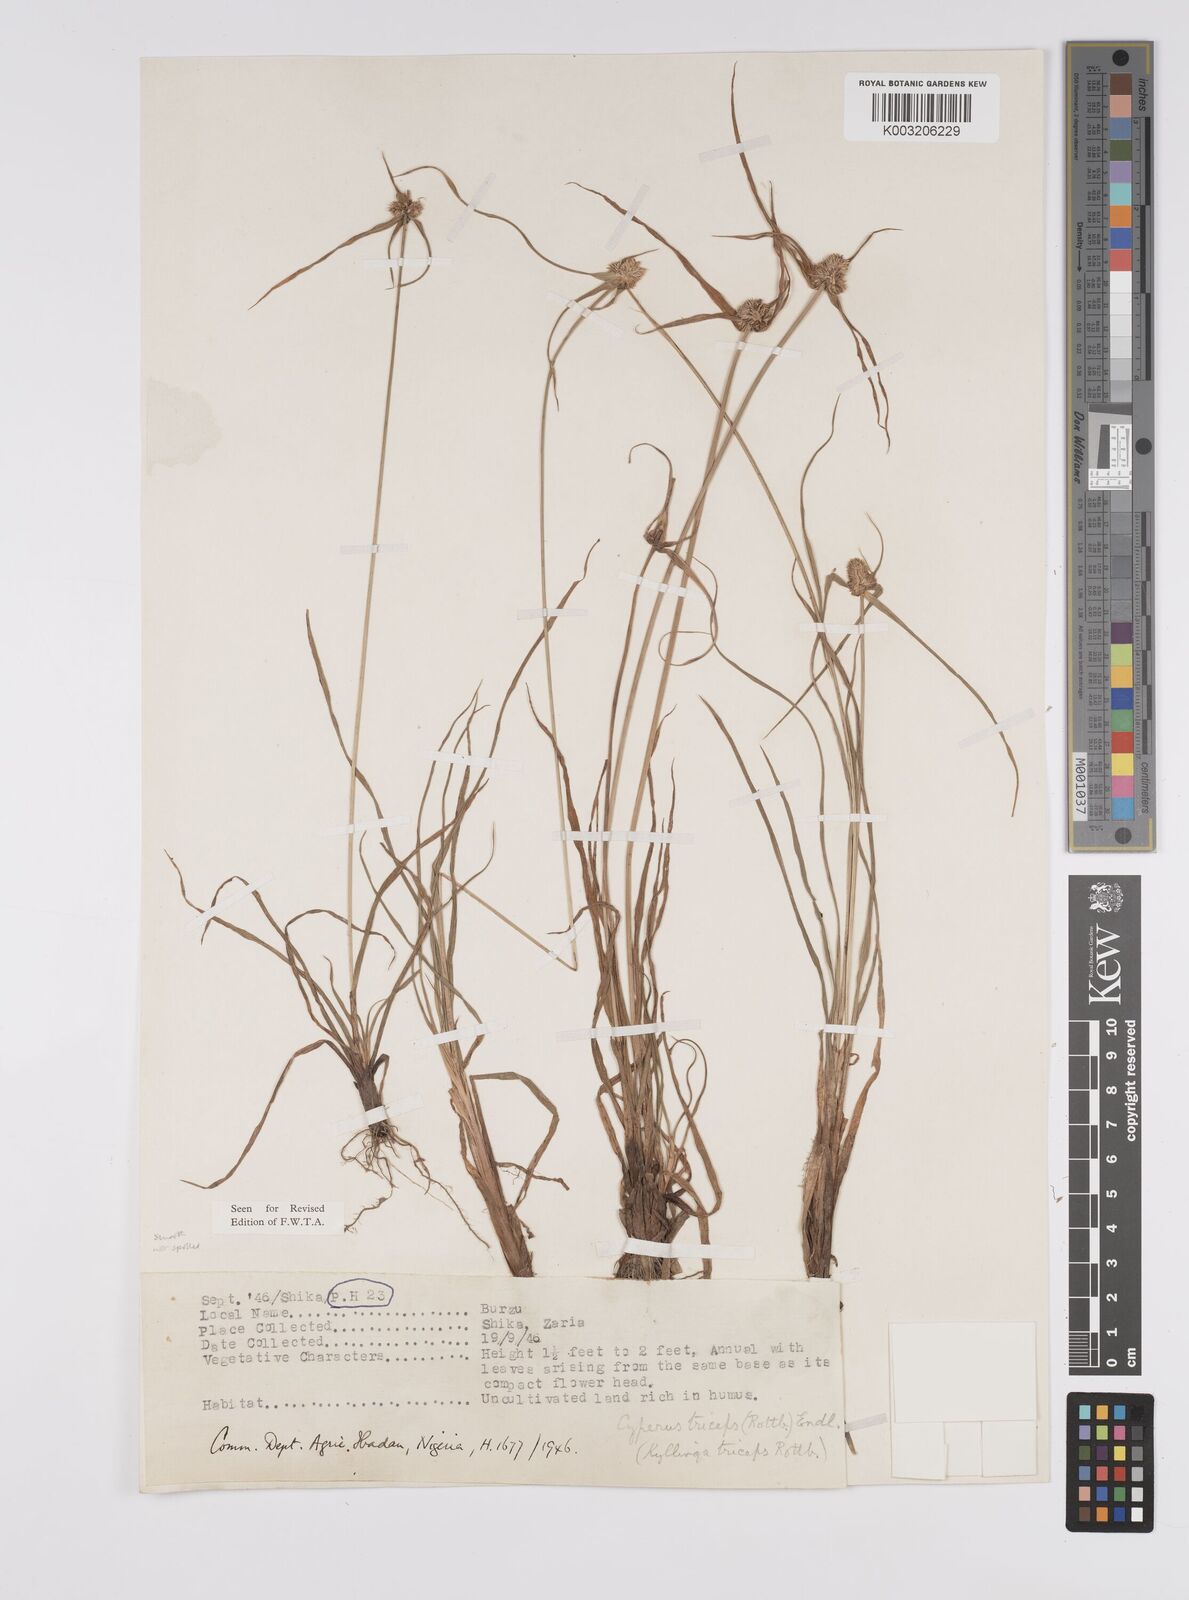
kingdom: Plantae
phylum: Tracheophyta
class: Liliopsida
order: Poales
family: Cyperaceae
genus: Cyperus
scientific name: Cyperus
